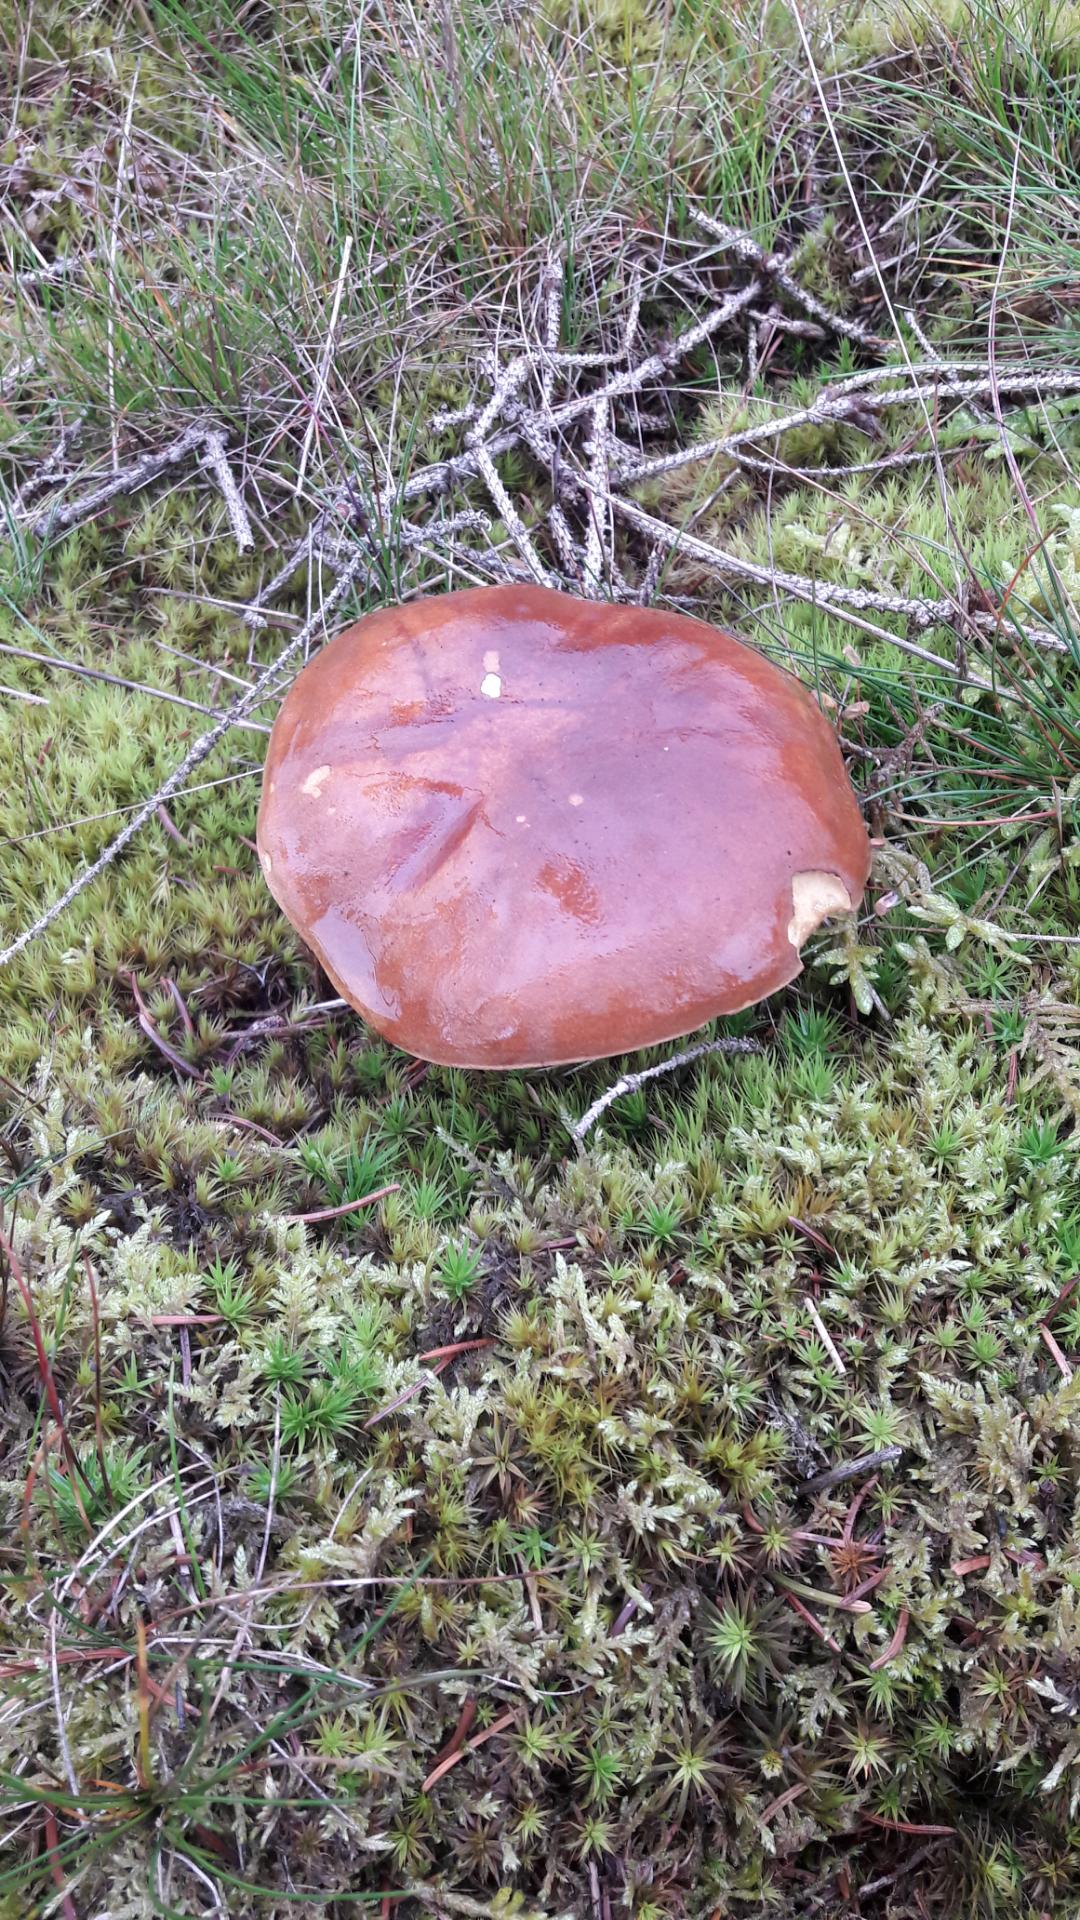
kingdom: Fungi
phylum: Basidiomycota
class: Agaricomycetes
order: Boletales
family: Boletaceae
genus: Imleria
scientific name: Imleria badia
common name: brunstokket rørhat
